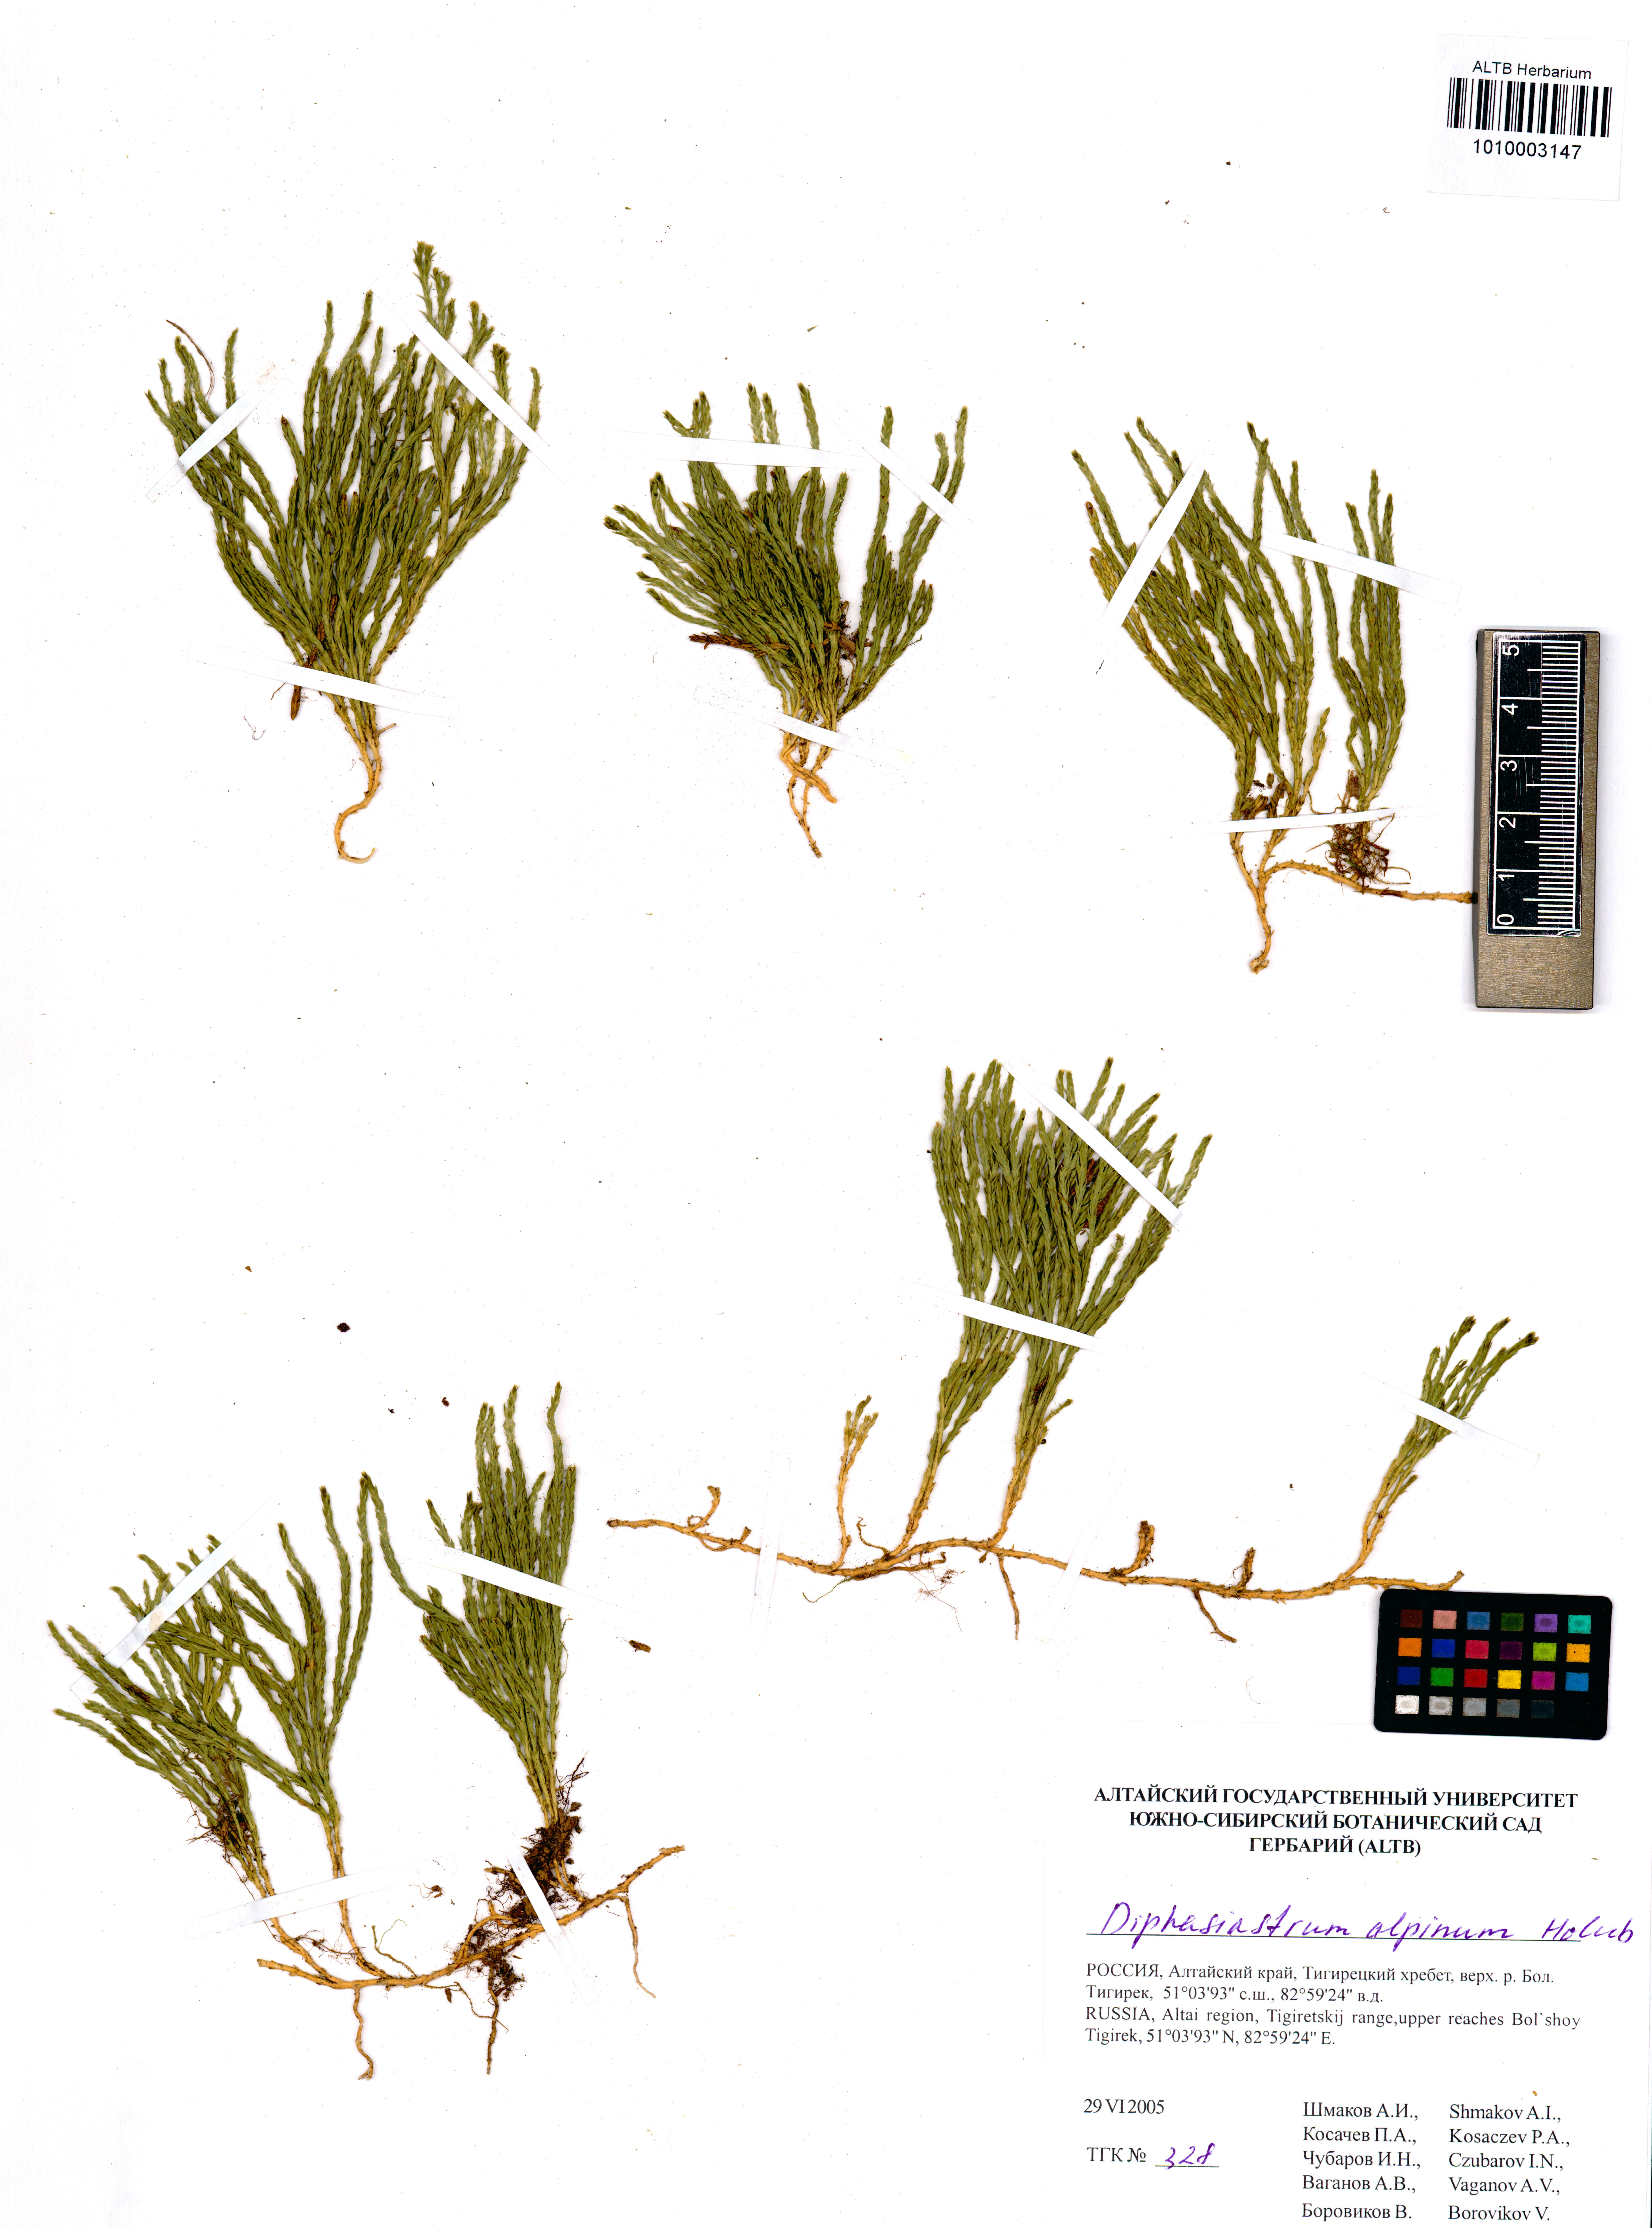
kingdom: Plantae
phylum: Tracheophyta
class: Lycopodiopsida
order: Lycopodiales
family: Lycopodiaceae
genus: Diphasiastrum
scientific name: Diphasiastrum alpinum
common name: Alpine clubmoss
